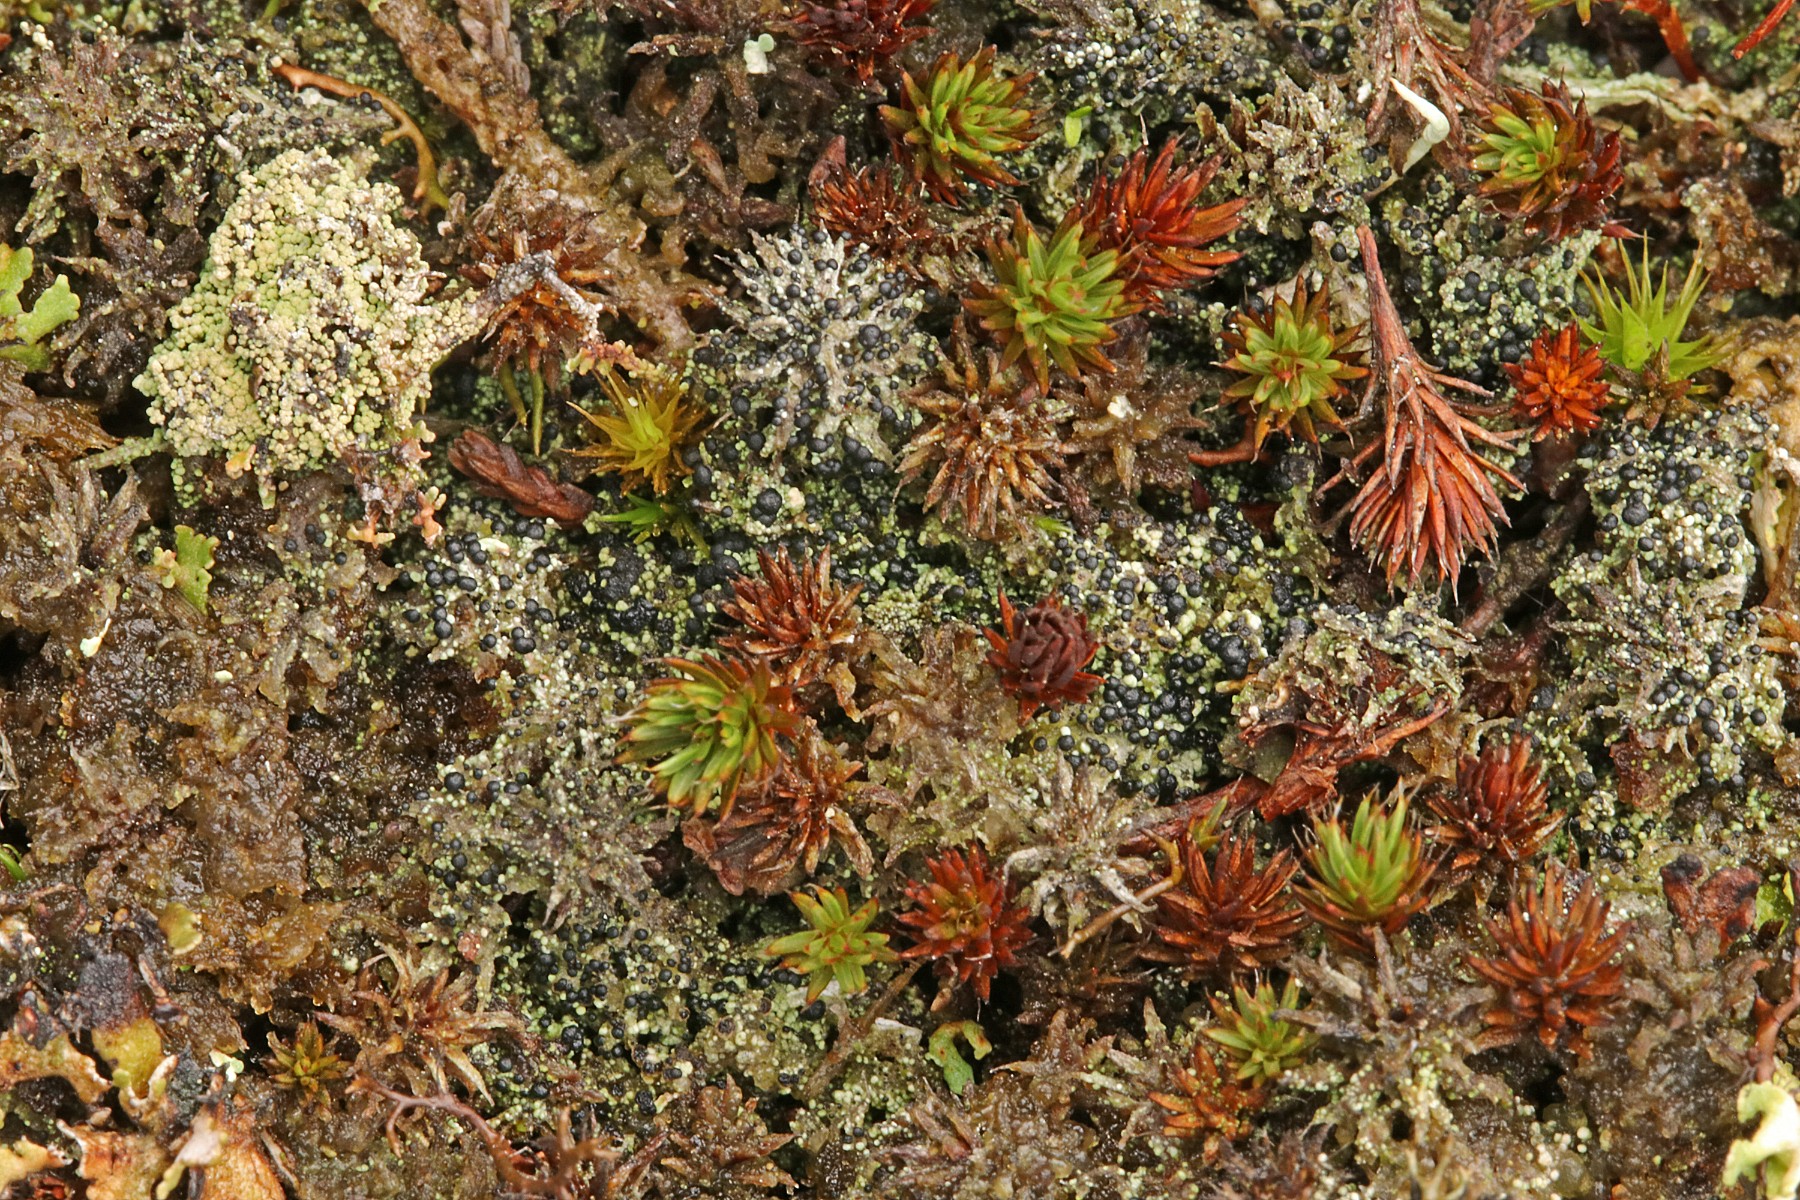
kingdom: Fungi
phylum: Ascomycota
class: Lecanoromycetes
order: Lecanorales
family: Byssolomataceae
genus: Micarea
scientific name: Micarea lignaria
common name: tørve-knaplav
